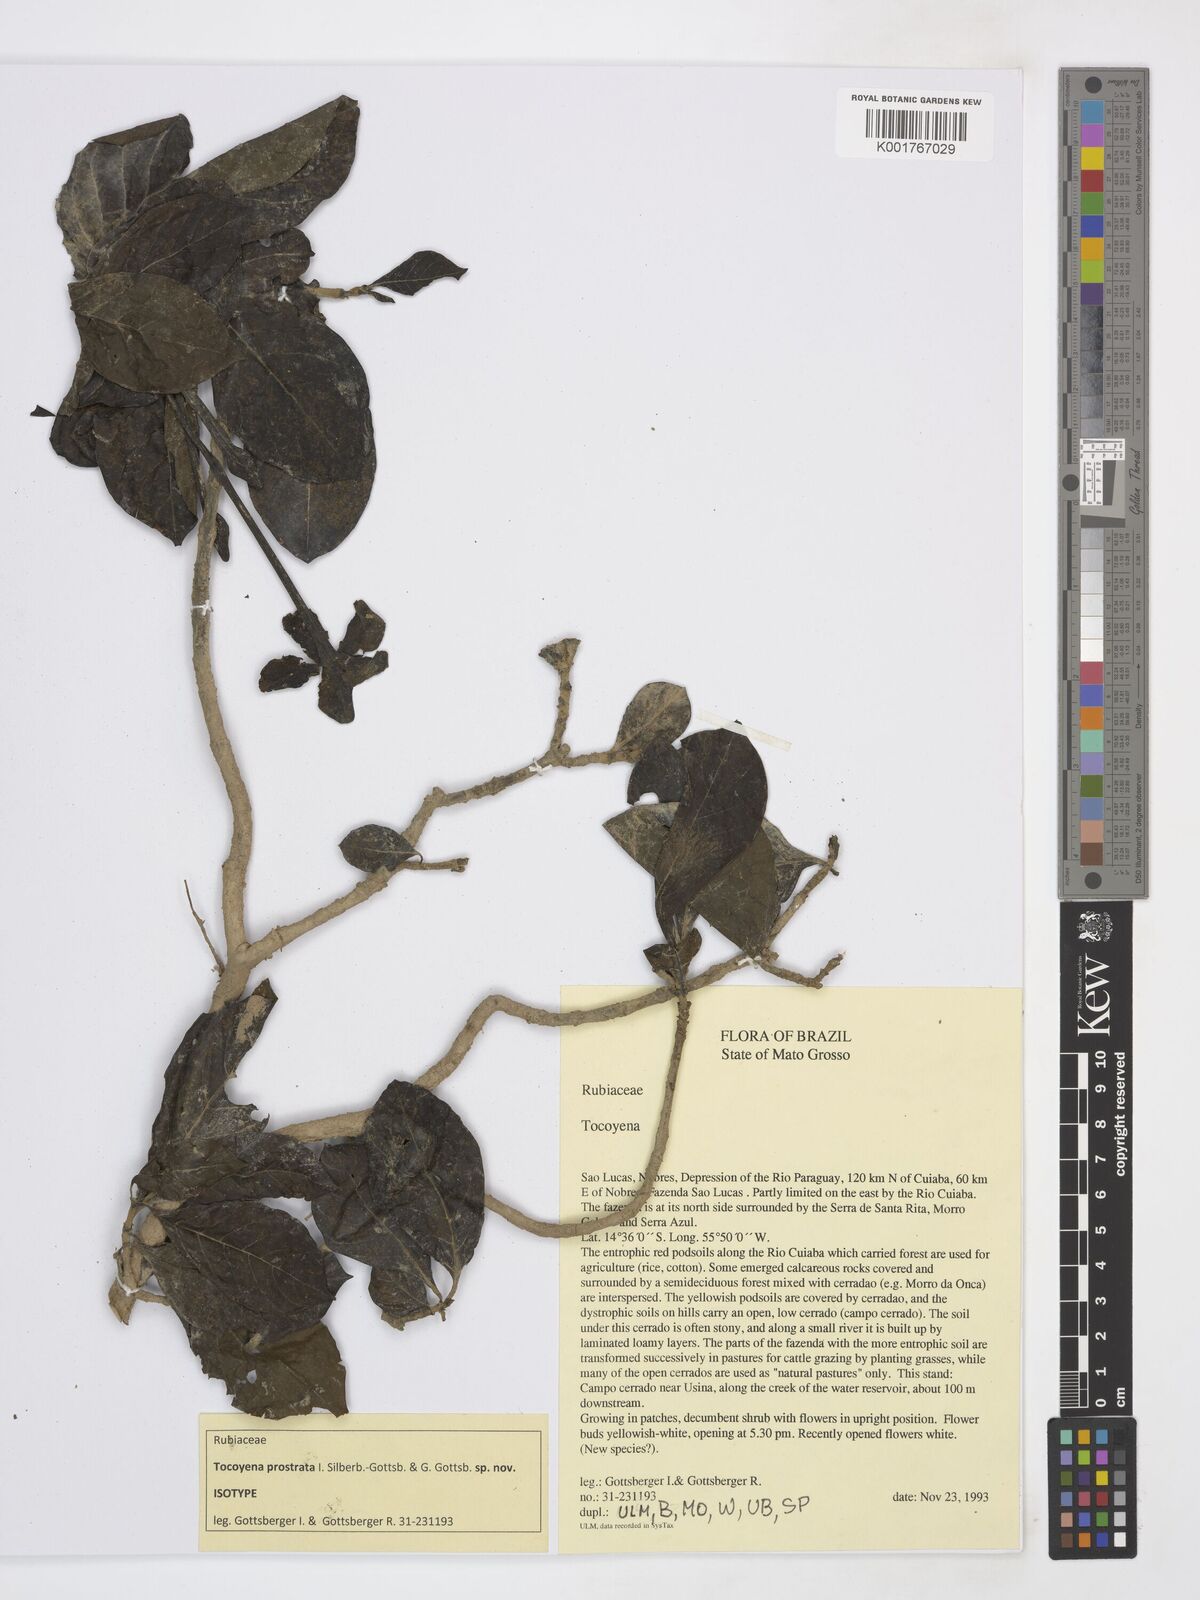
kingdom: Plantae
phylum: Tracheophyta
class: Magnoliopsida
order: Gentianales
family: Rubiaceae
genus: Tocoyena
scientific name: Tocoyena
